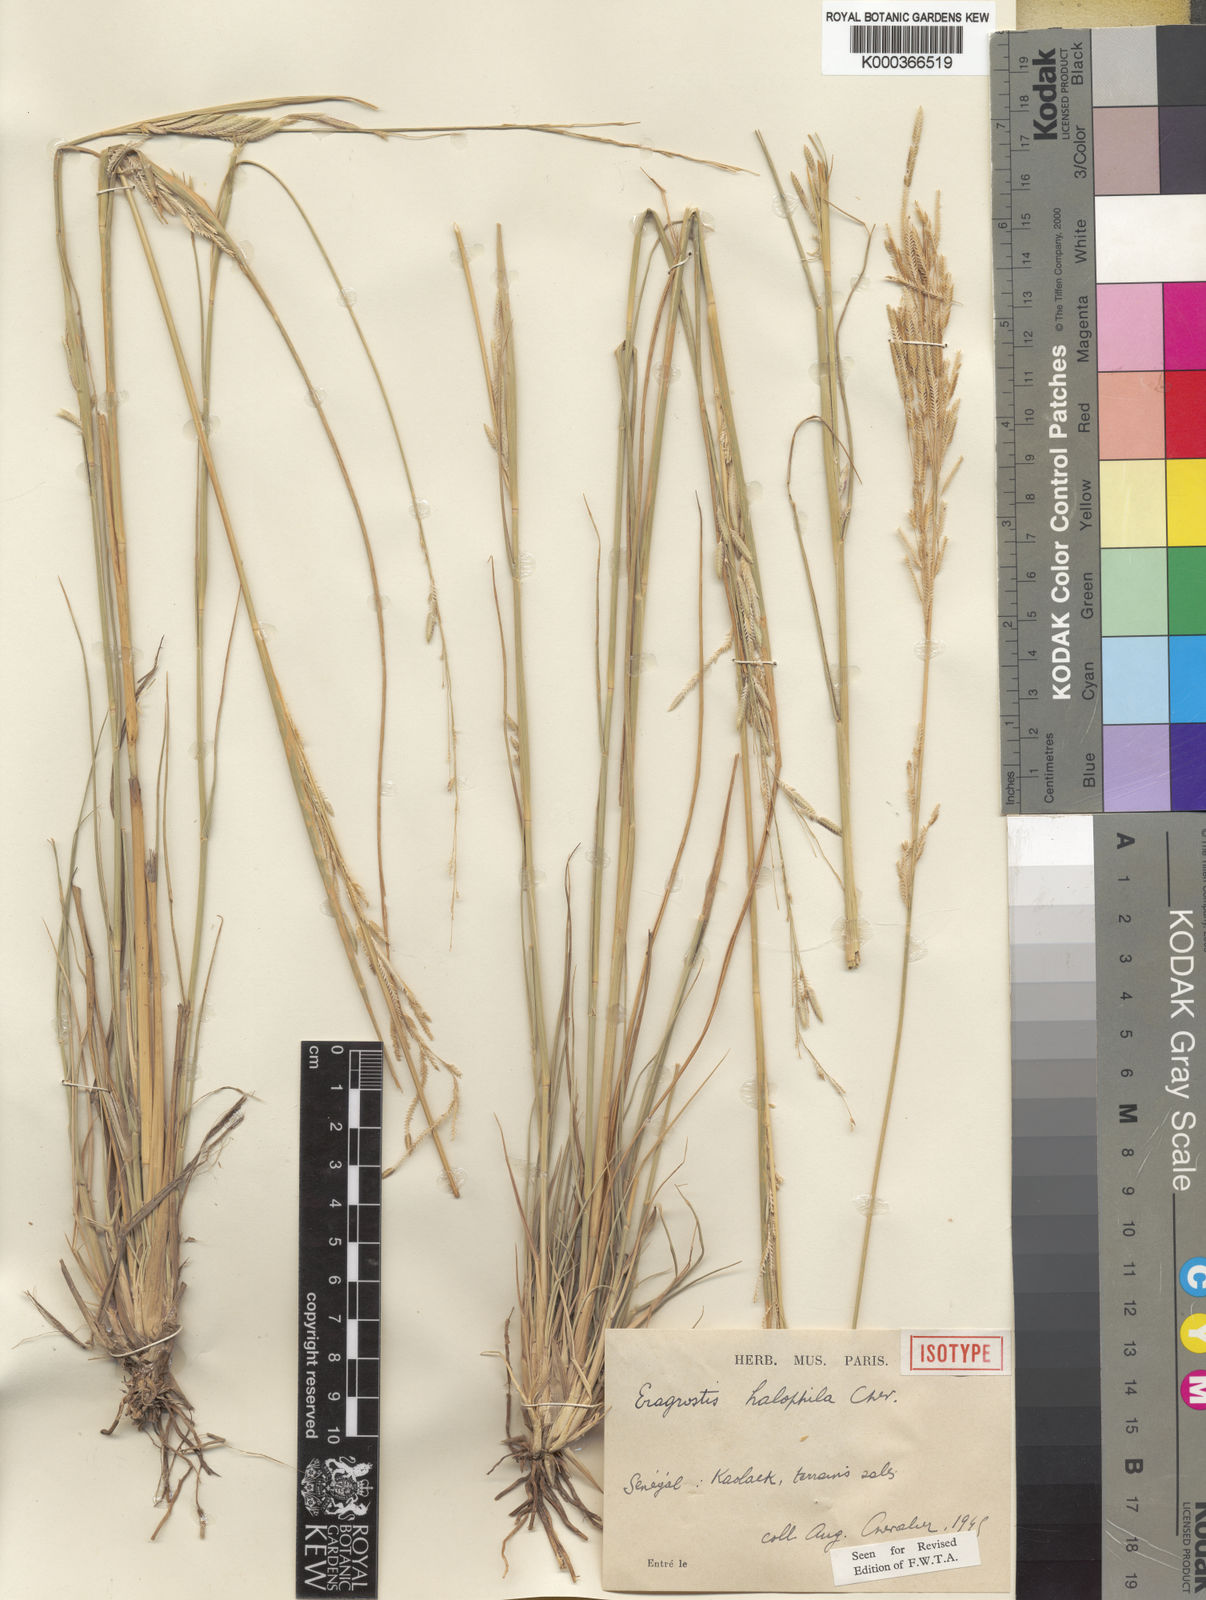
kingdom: Plantae
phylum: Tracheophyta
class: Liliopsida
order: Poales
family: Poaceae
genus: Eragrostis
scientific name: Eragrostis squamata
